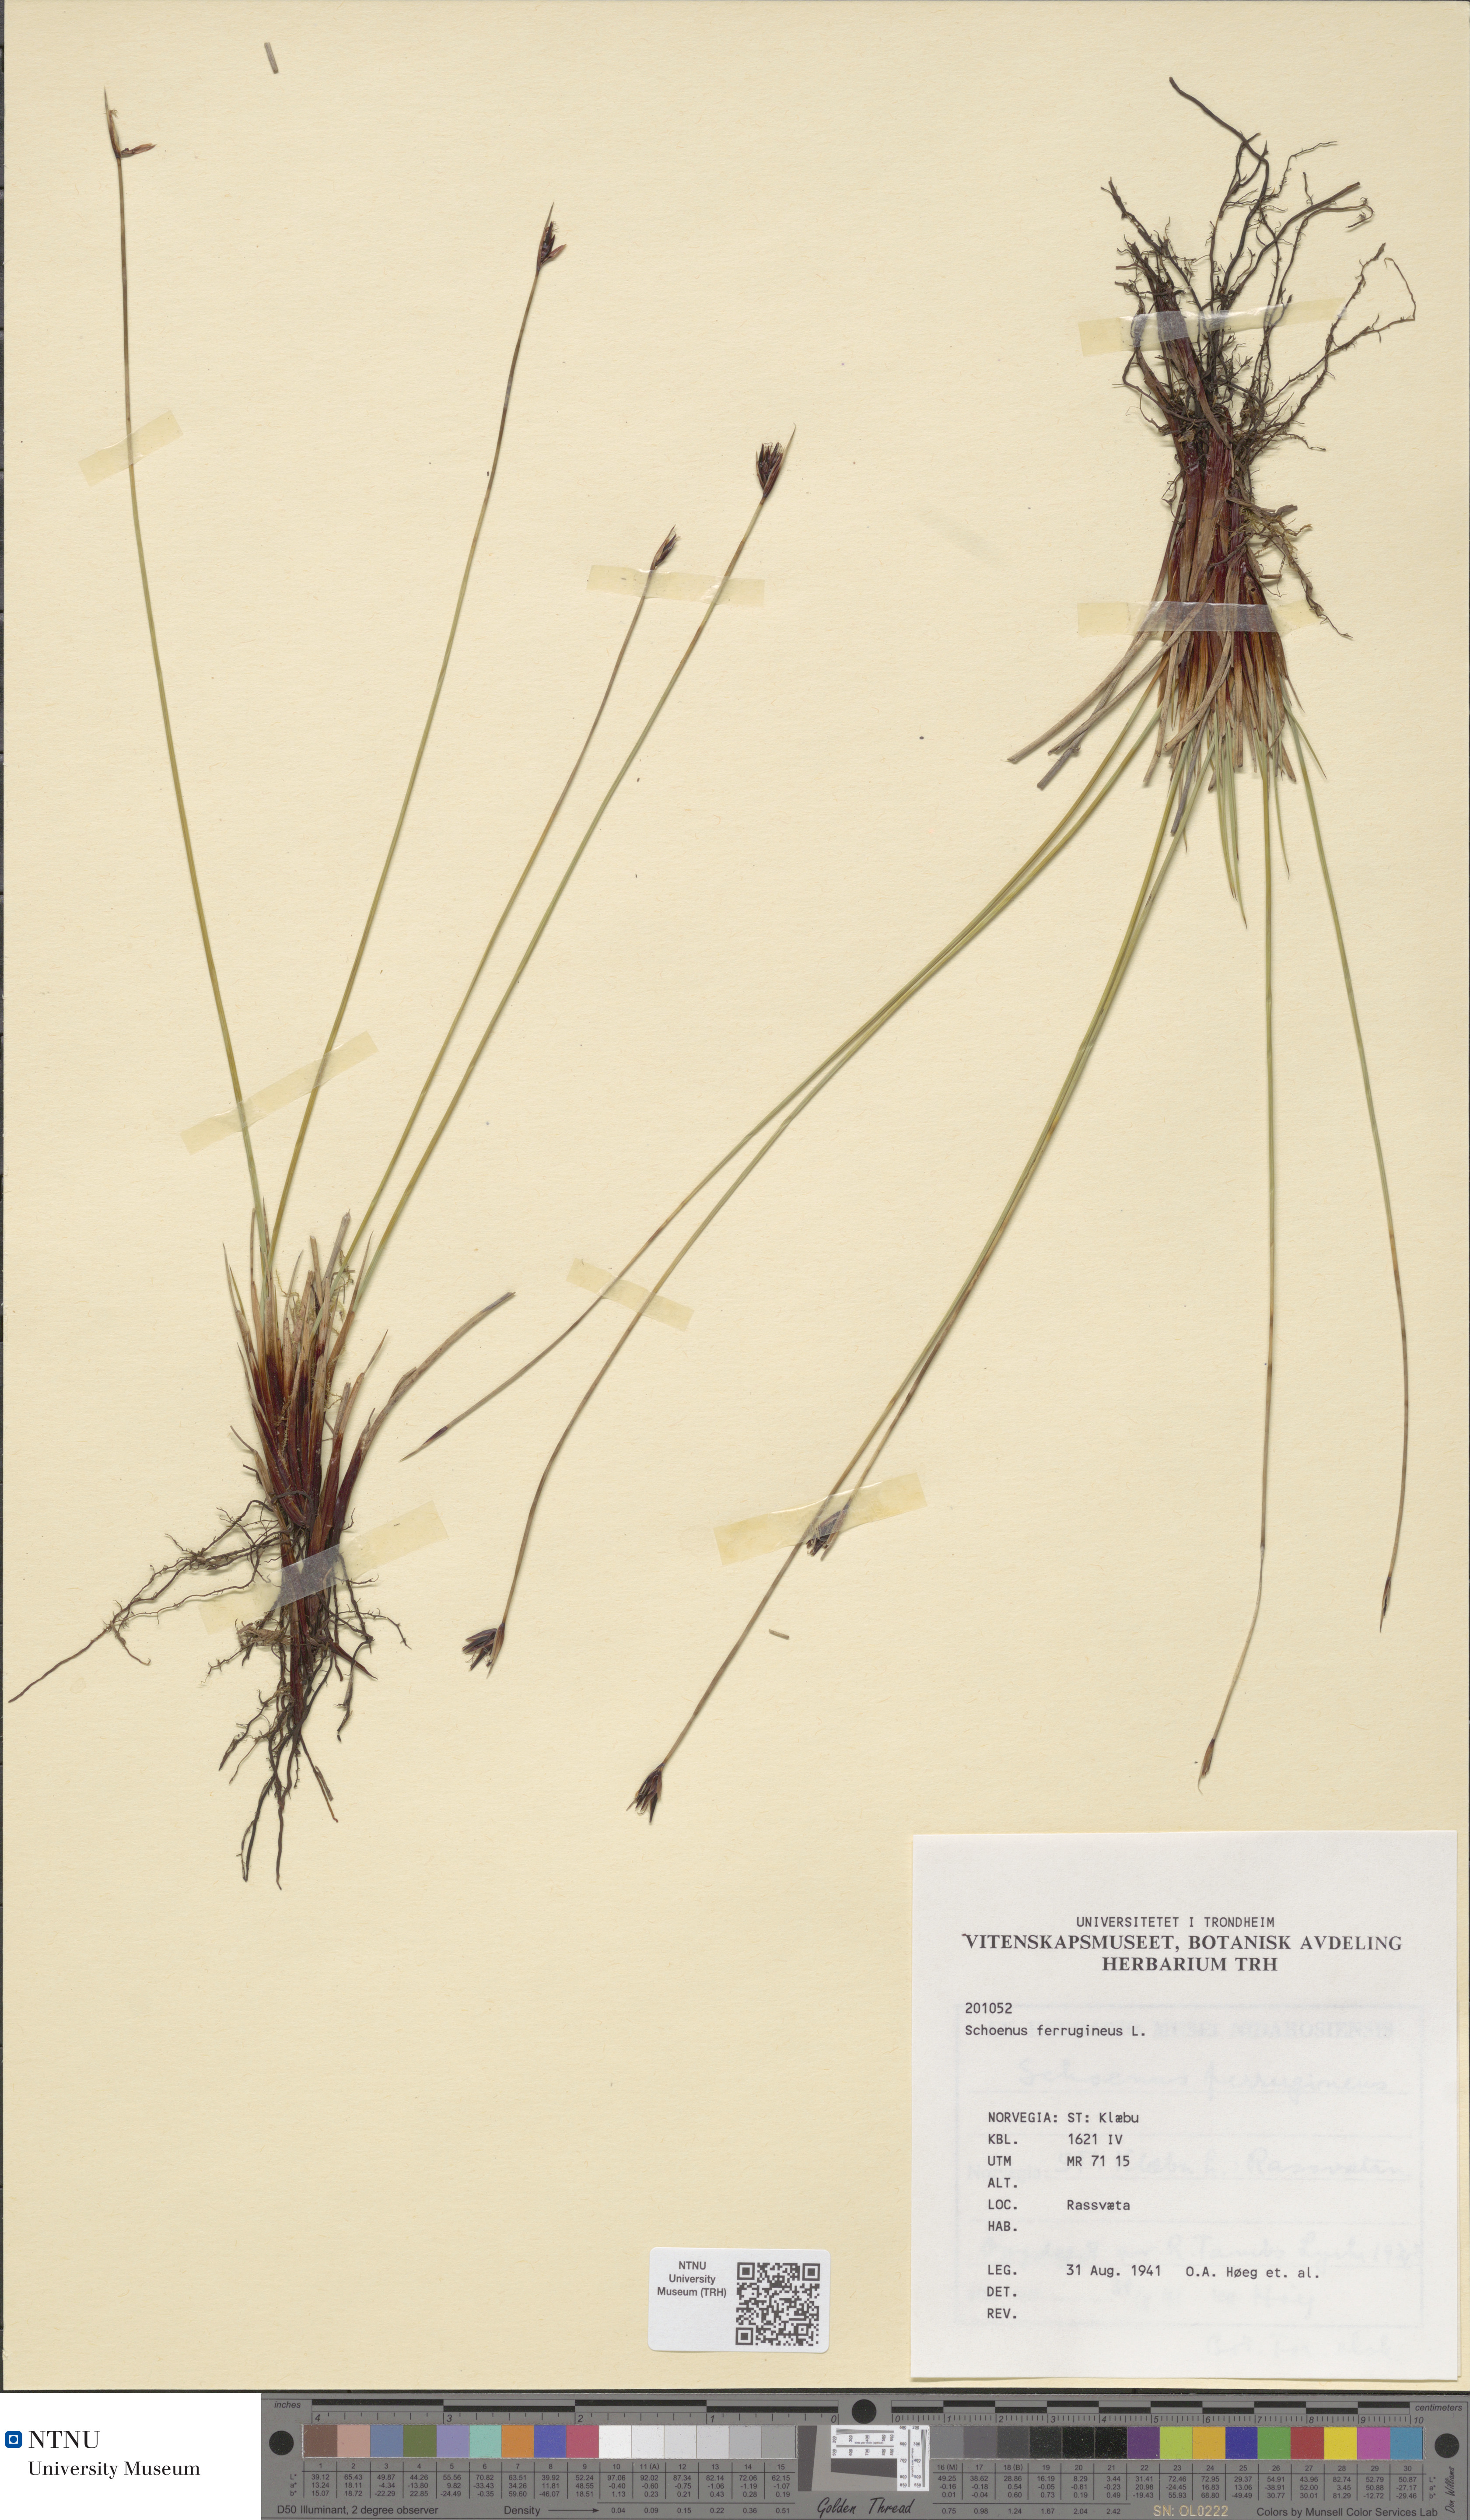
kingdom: Plantae
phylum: Tracheophyta
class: Liliopsida
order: Poales
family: Cyperaceae
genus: Schoenus
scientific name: Schoenus ferrugineus
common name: Brown bog-rush
